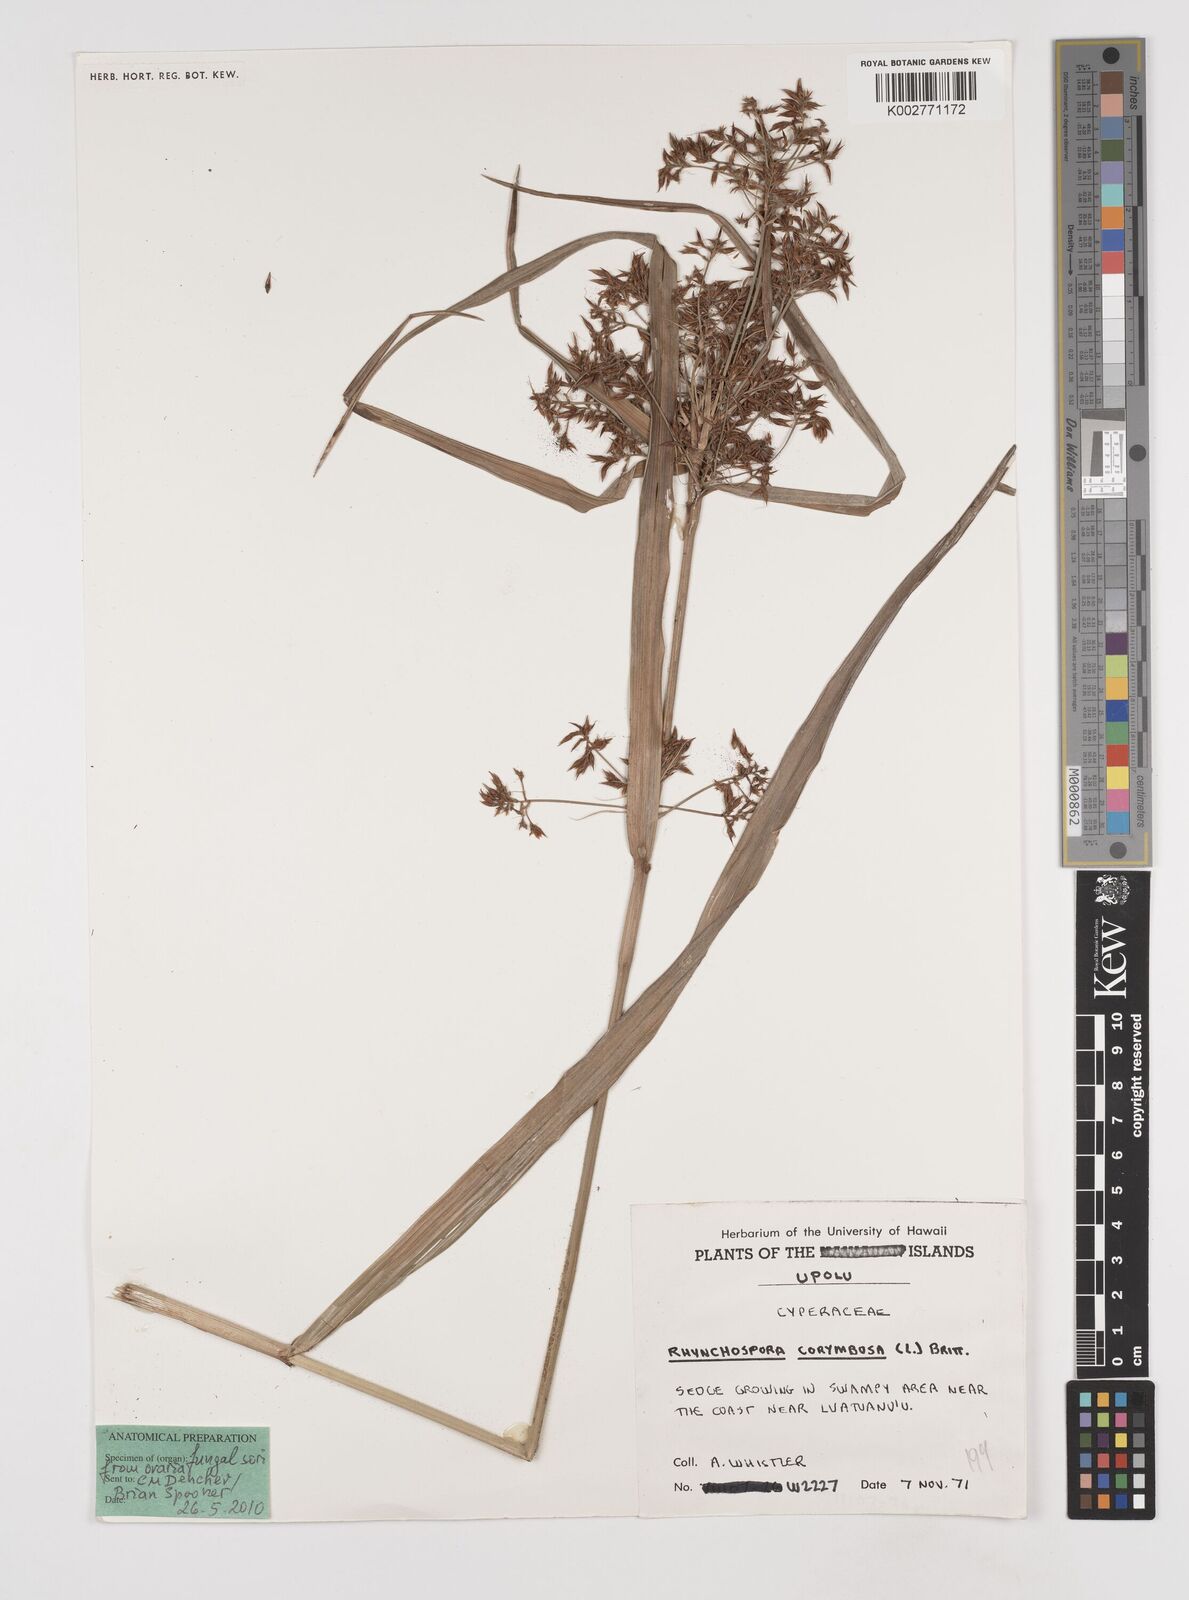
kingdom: Plantae
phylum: Tracheophyta
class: Liliopsida
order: Poales
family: Cyperaceae
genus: Rhynchospora
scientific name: Rhynchospora corymbosa
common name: Golden beak sedge
